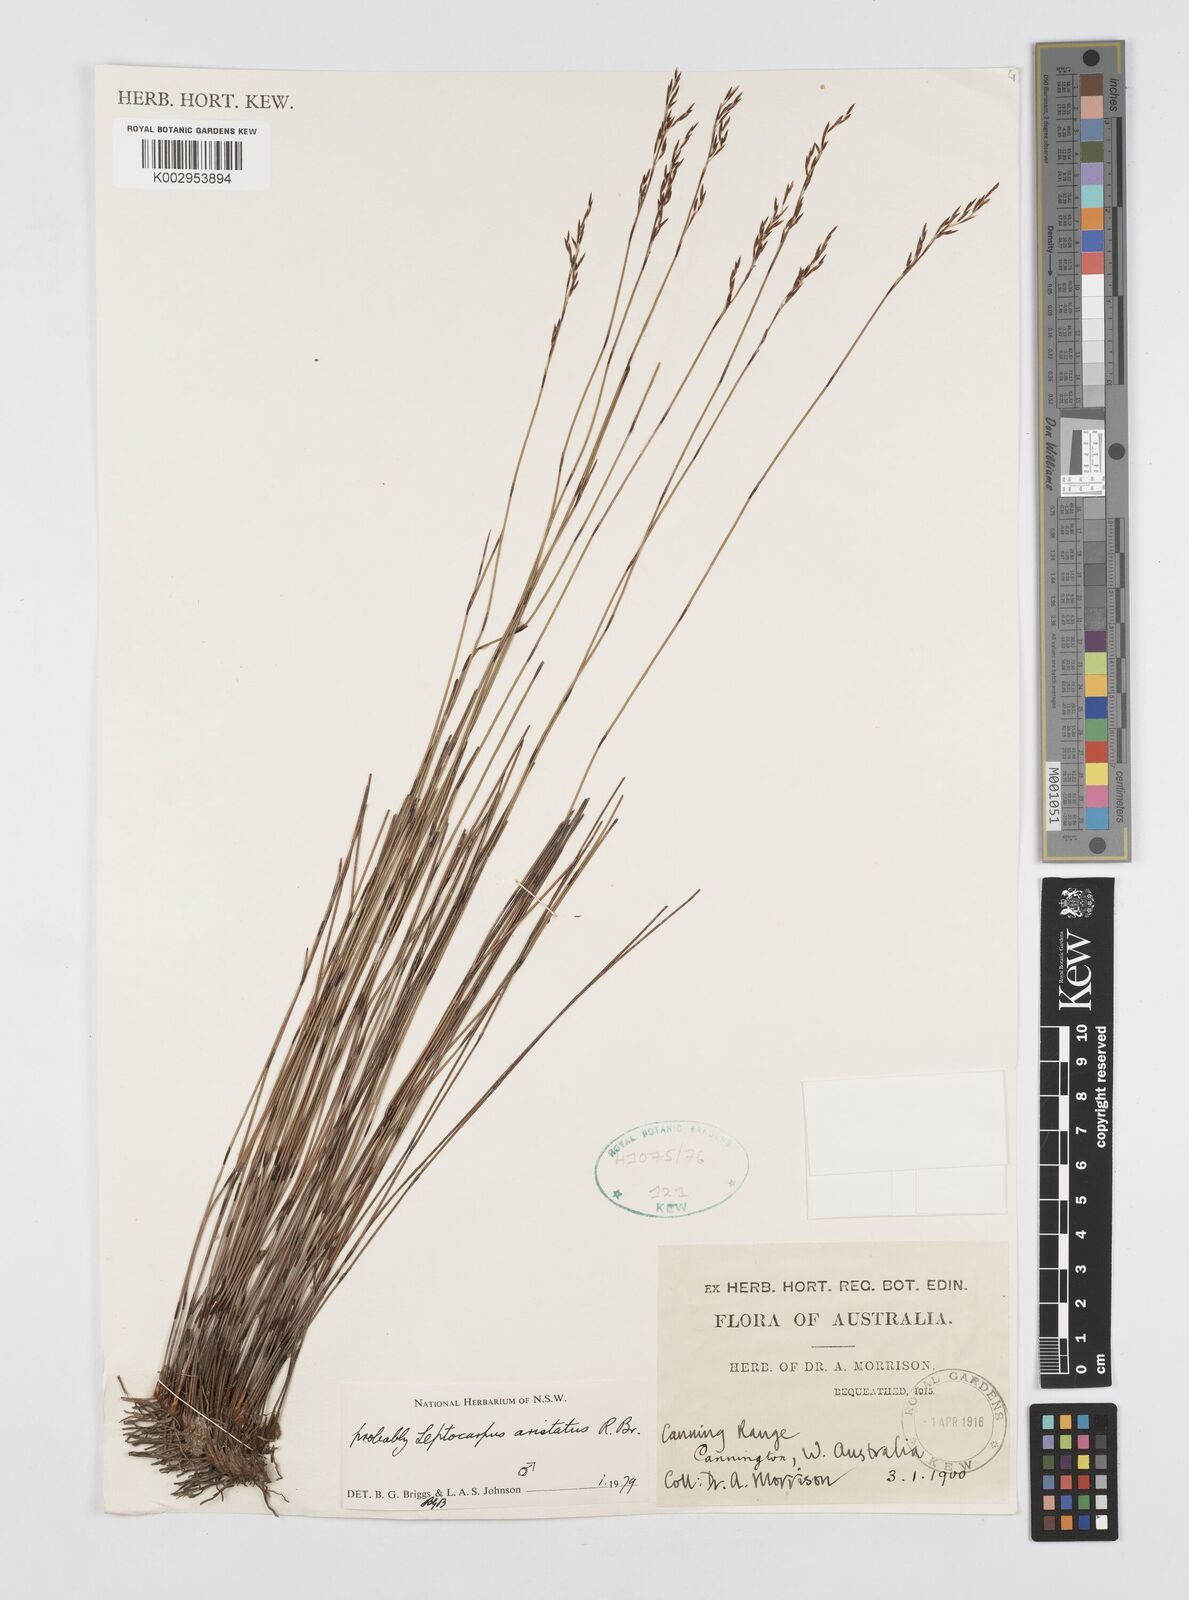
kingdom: Plantae
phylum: Tracheophyta
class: Liliopsida
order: Poales
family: Restionaceae
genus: Chaetanthus
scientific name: Chaetanthus aristatus
